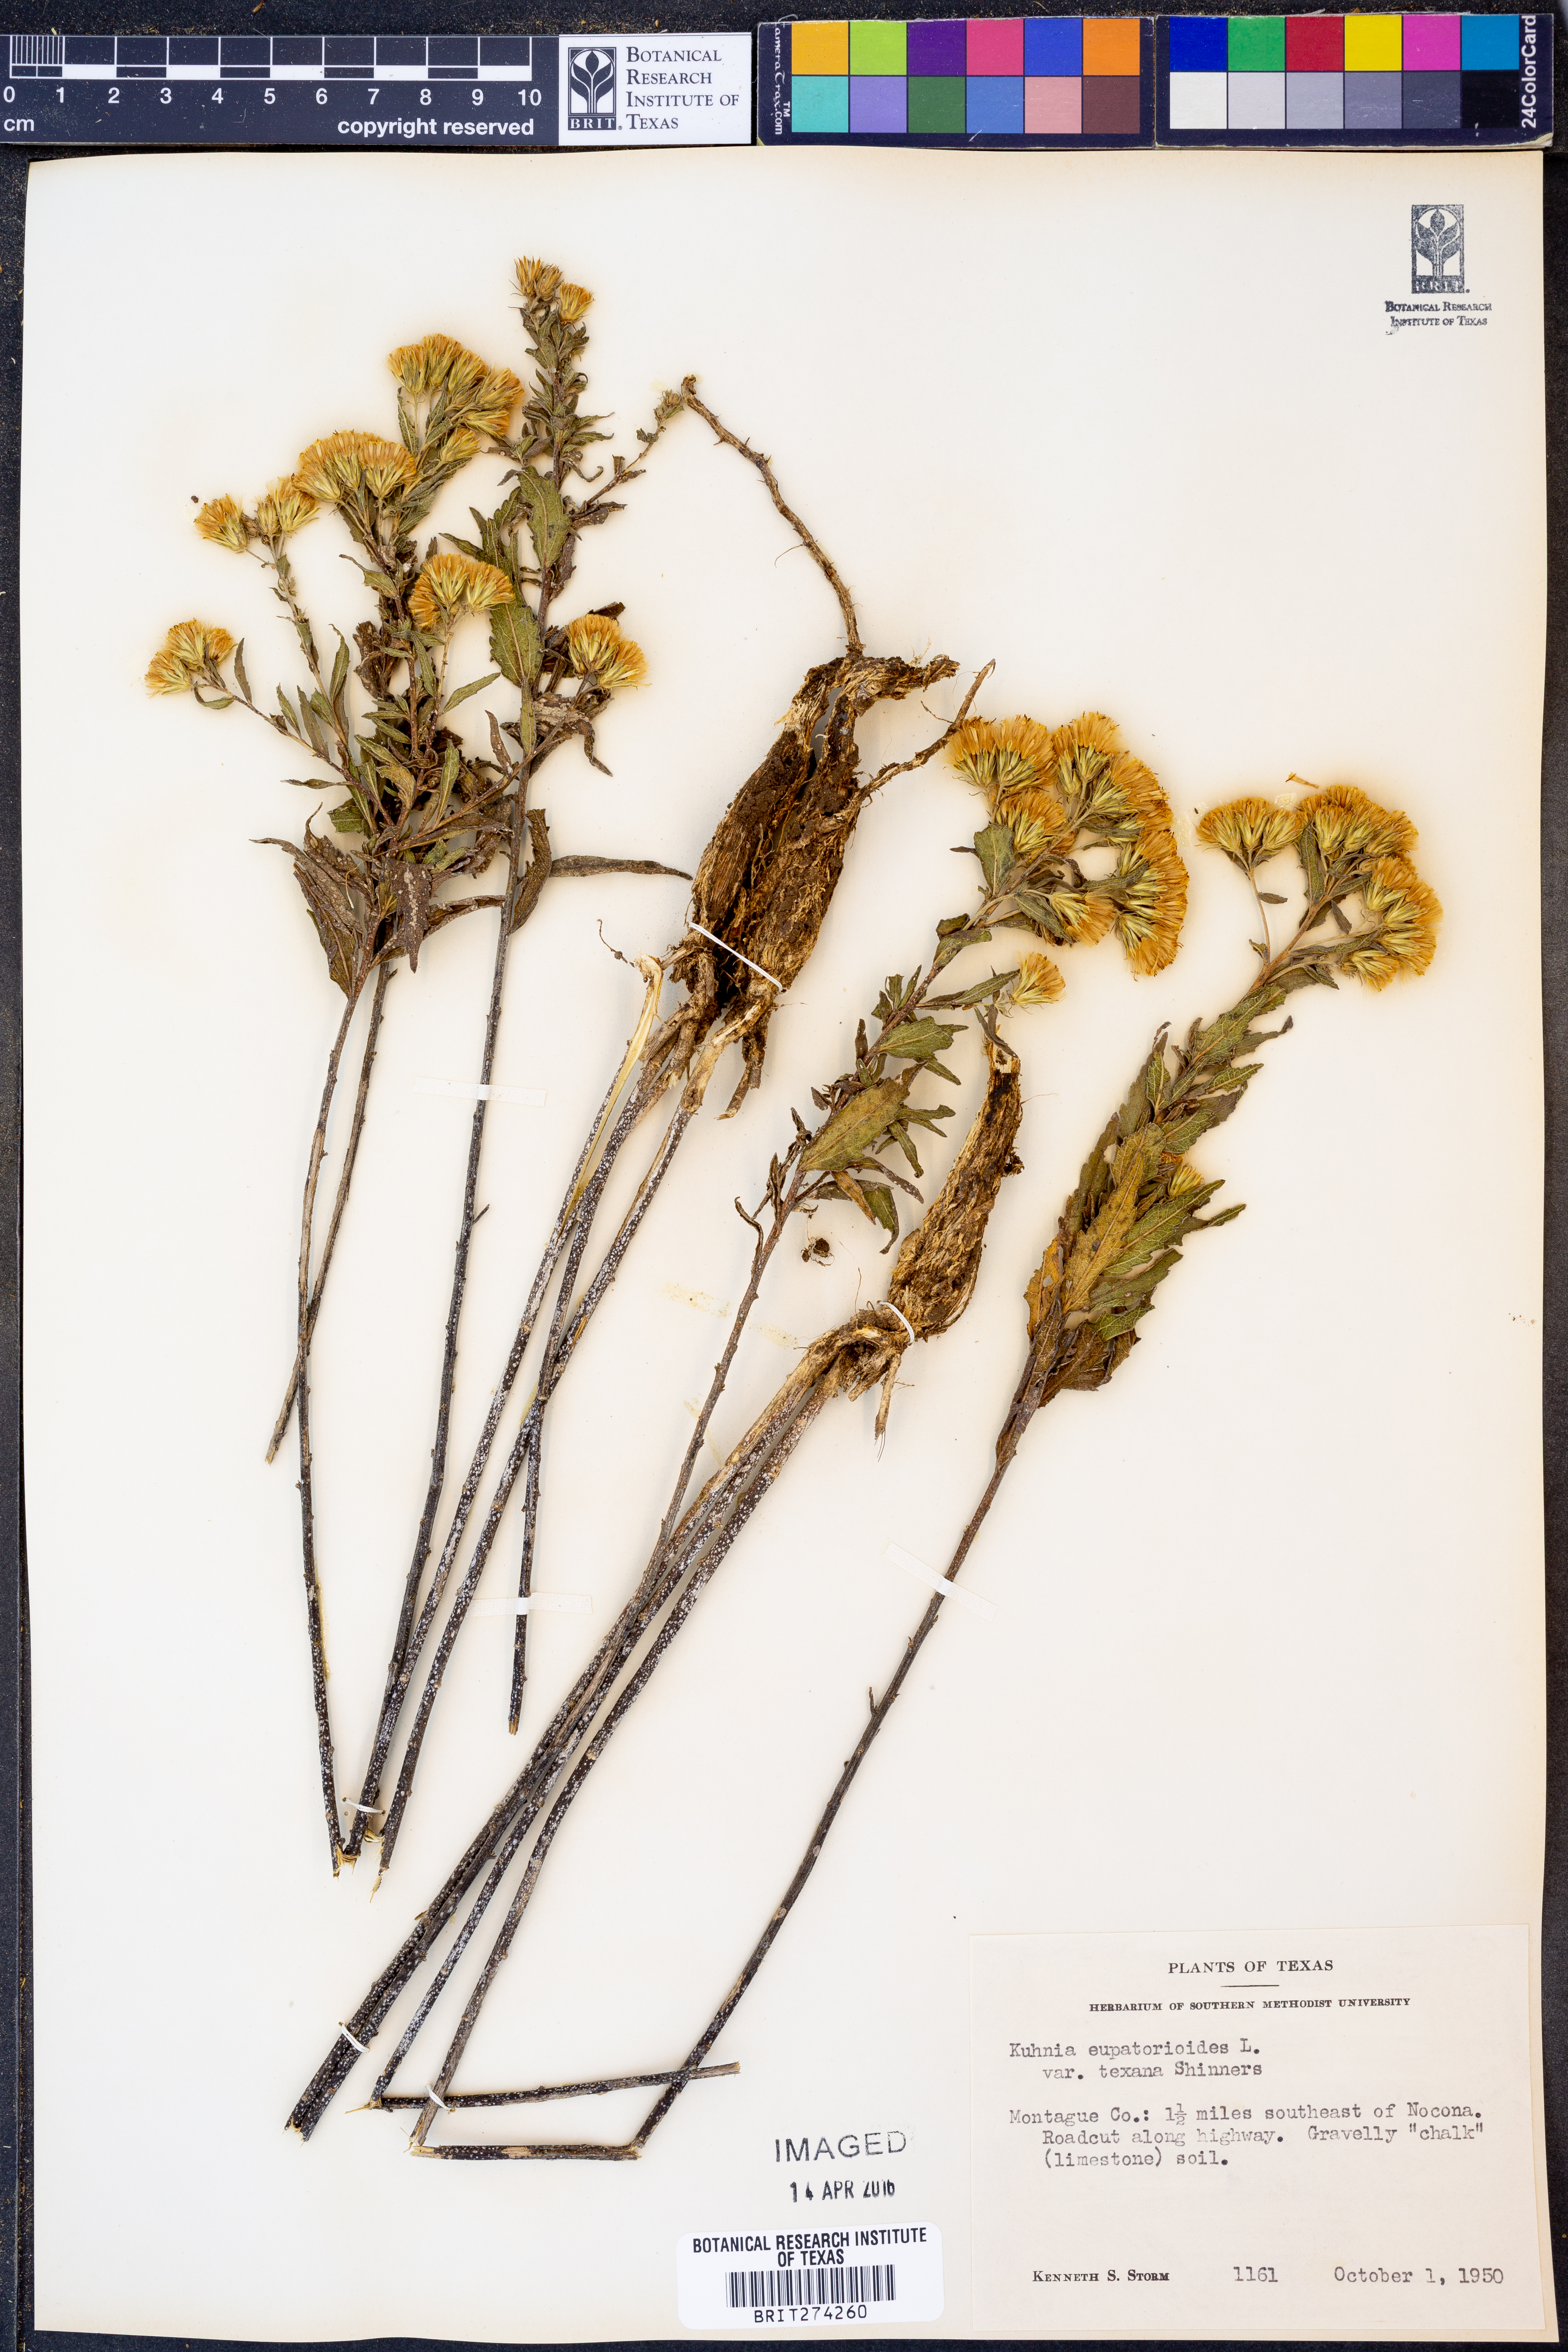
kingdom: Plantae
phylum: Tracheophyta
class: Magnoliopsida
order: Asterales
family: Asteraceae
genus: Brickellia
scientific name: Brickellia
